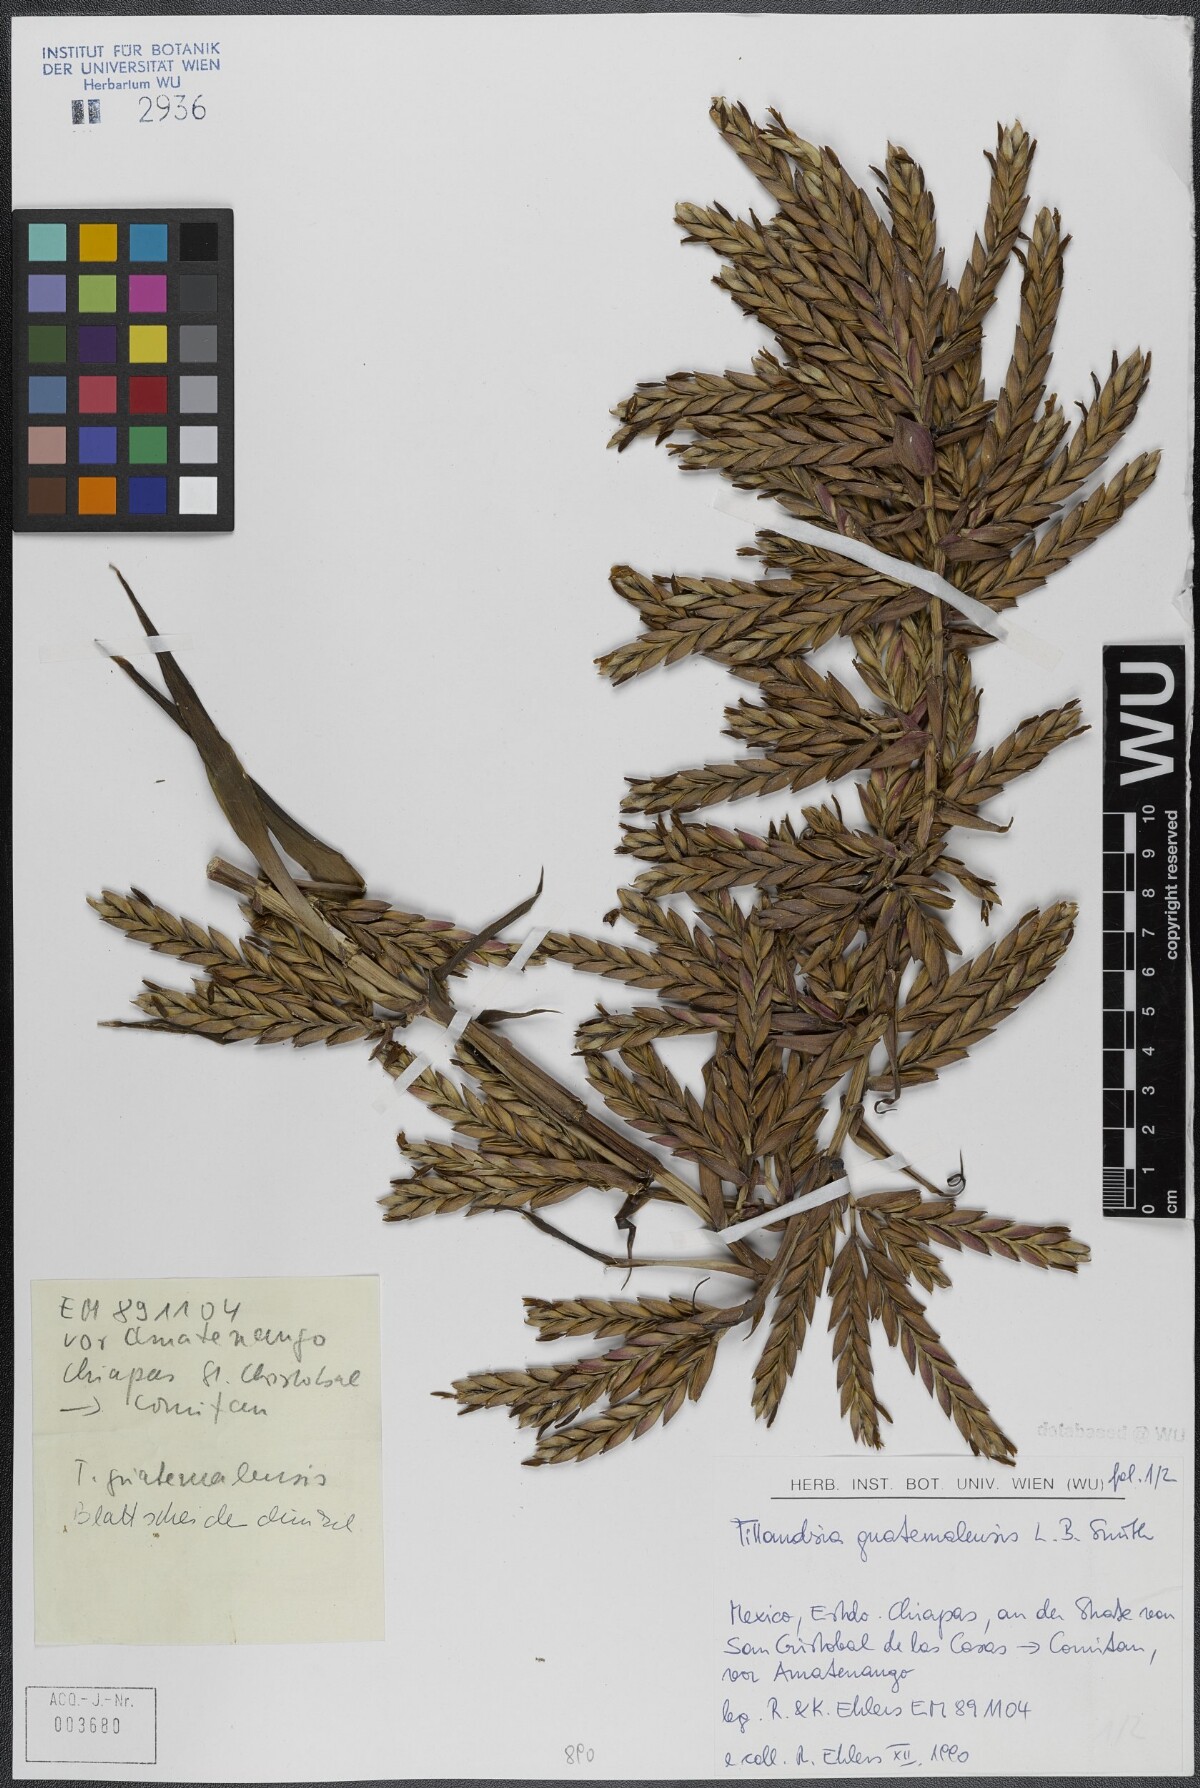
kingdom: Plantae
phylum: Tracheophyta
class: Liliopsida
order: Poales
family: Bromeliaceae
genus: Tillandsia
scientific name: Tillandsia guatemalensis
